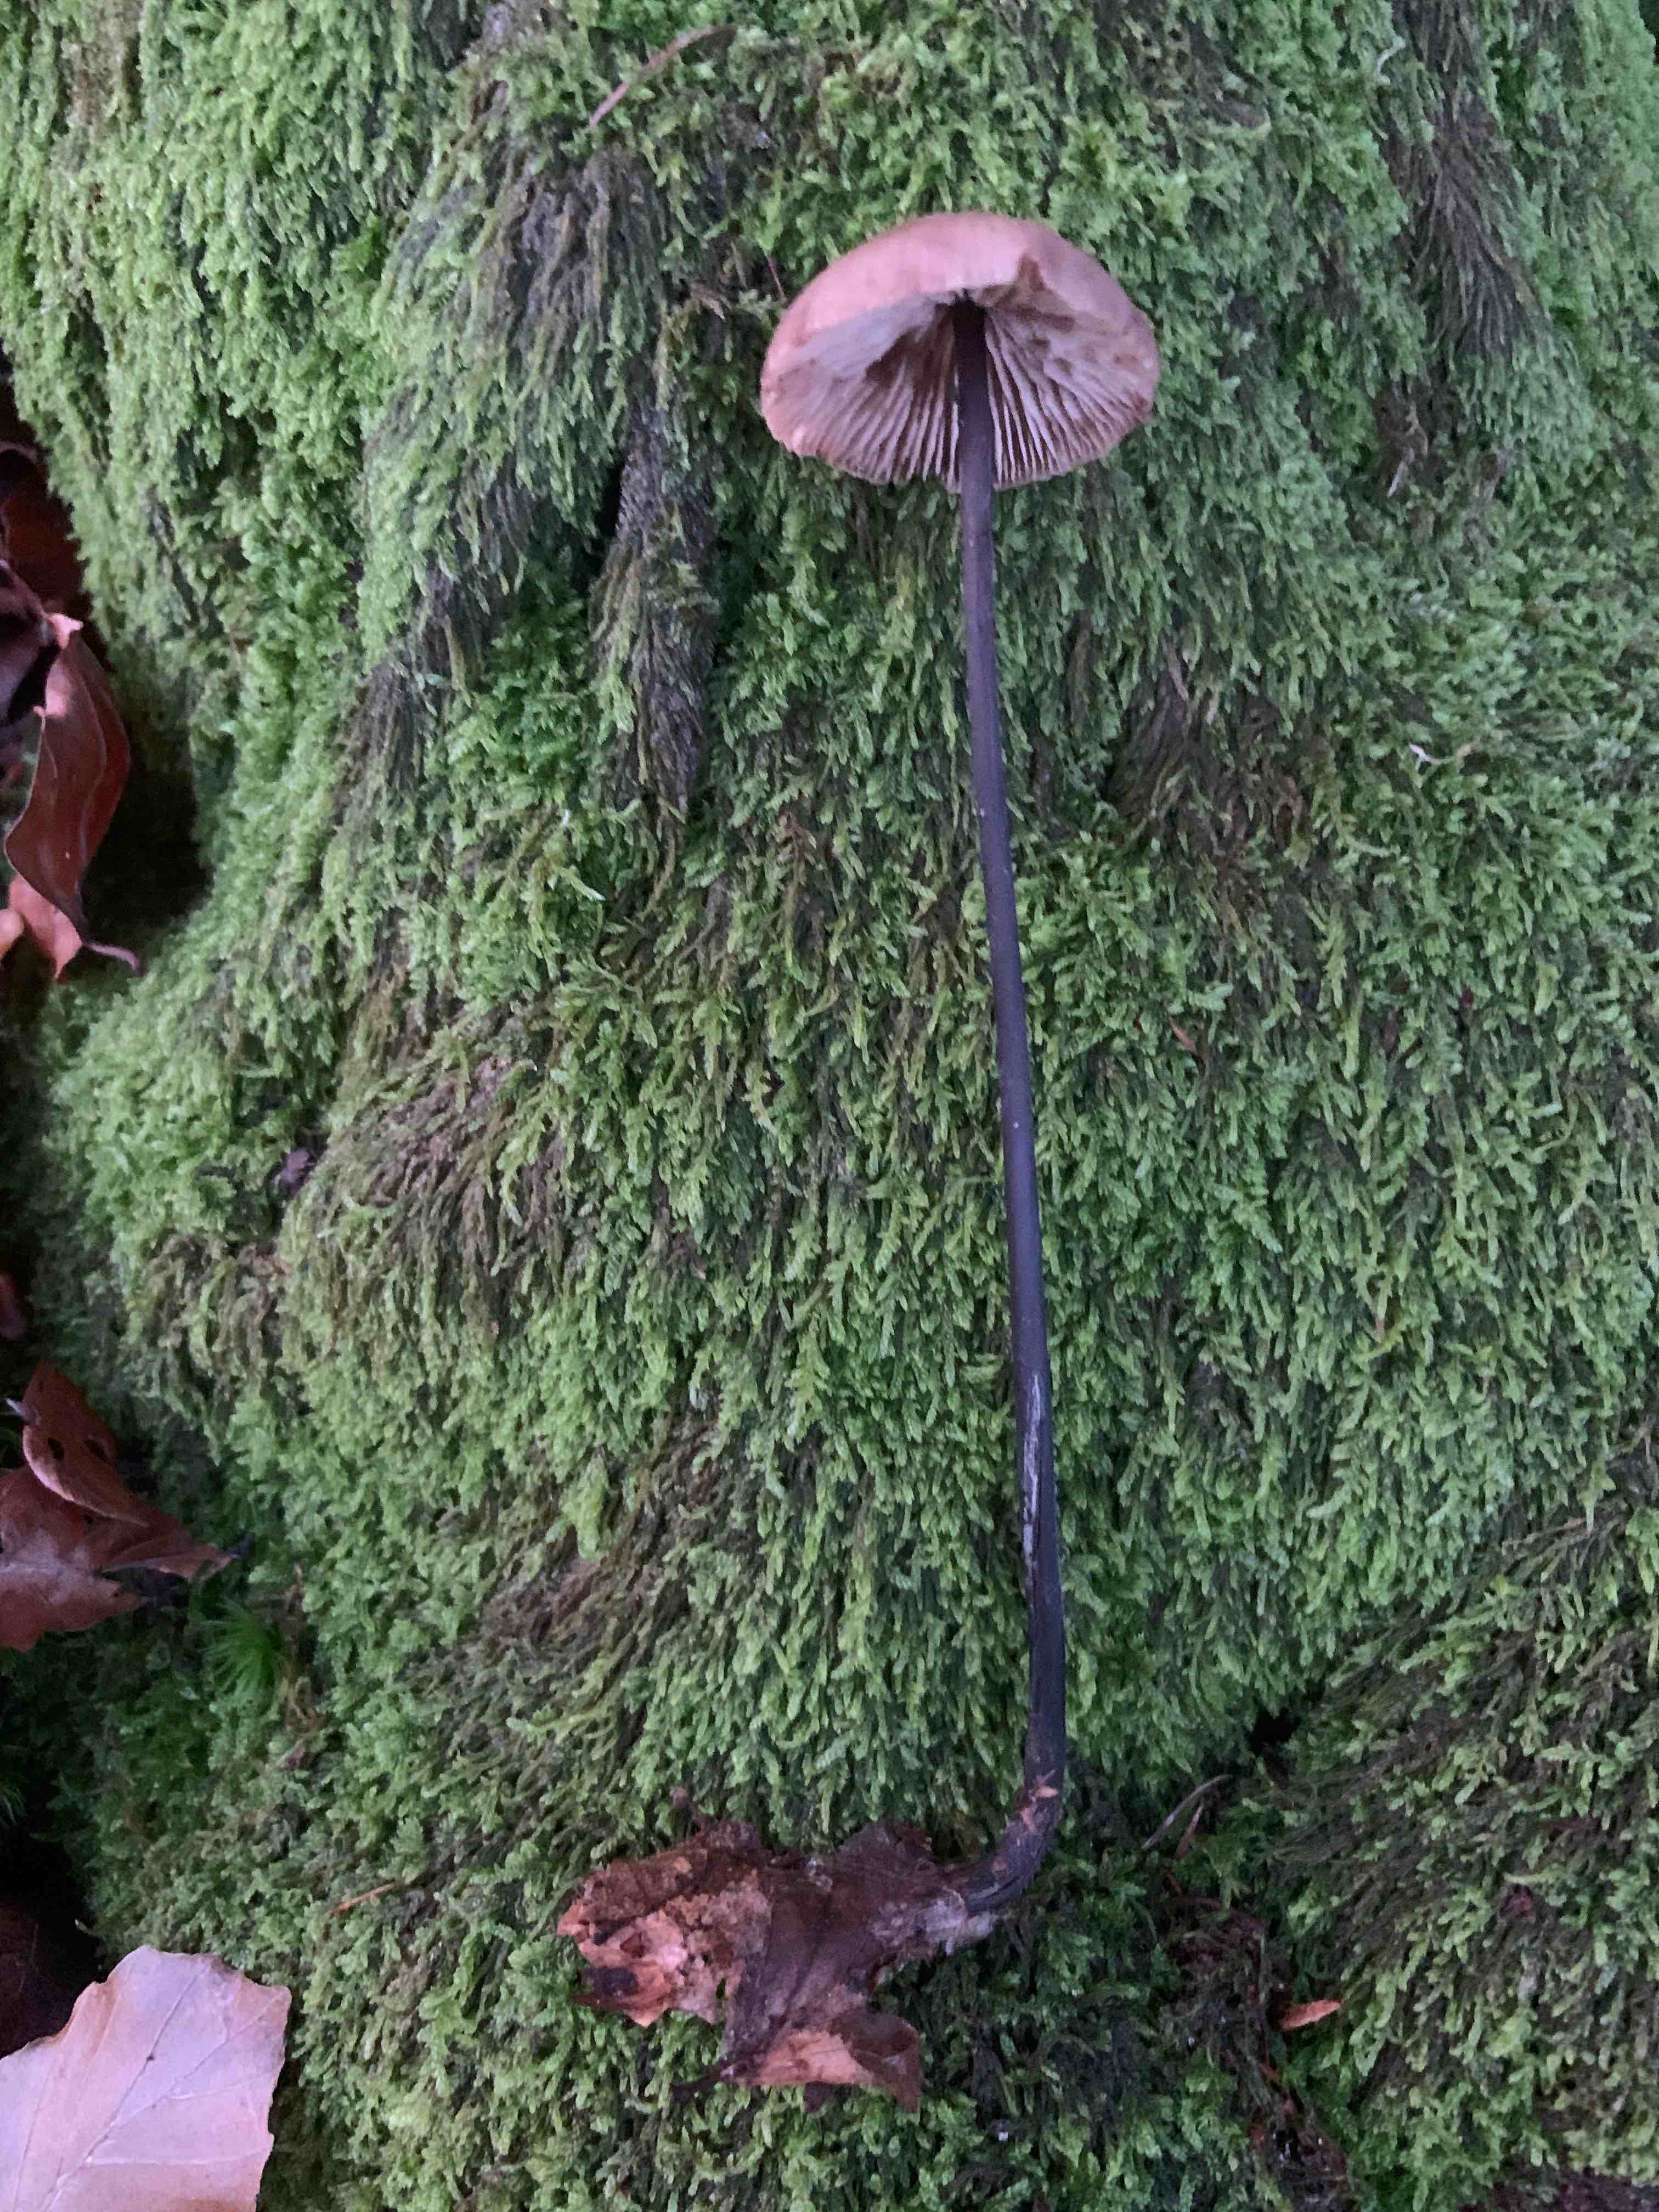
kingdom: Fungi
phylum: Basidiomycota
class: Agaricomycetes
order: Agaricales
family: Omphalotaceae
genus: Mycetinis
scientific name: Mycetinis alliaceus
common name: stor løghat
